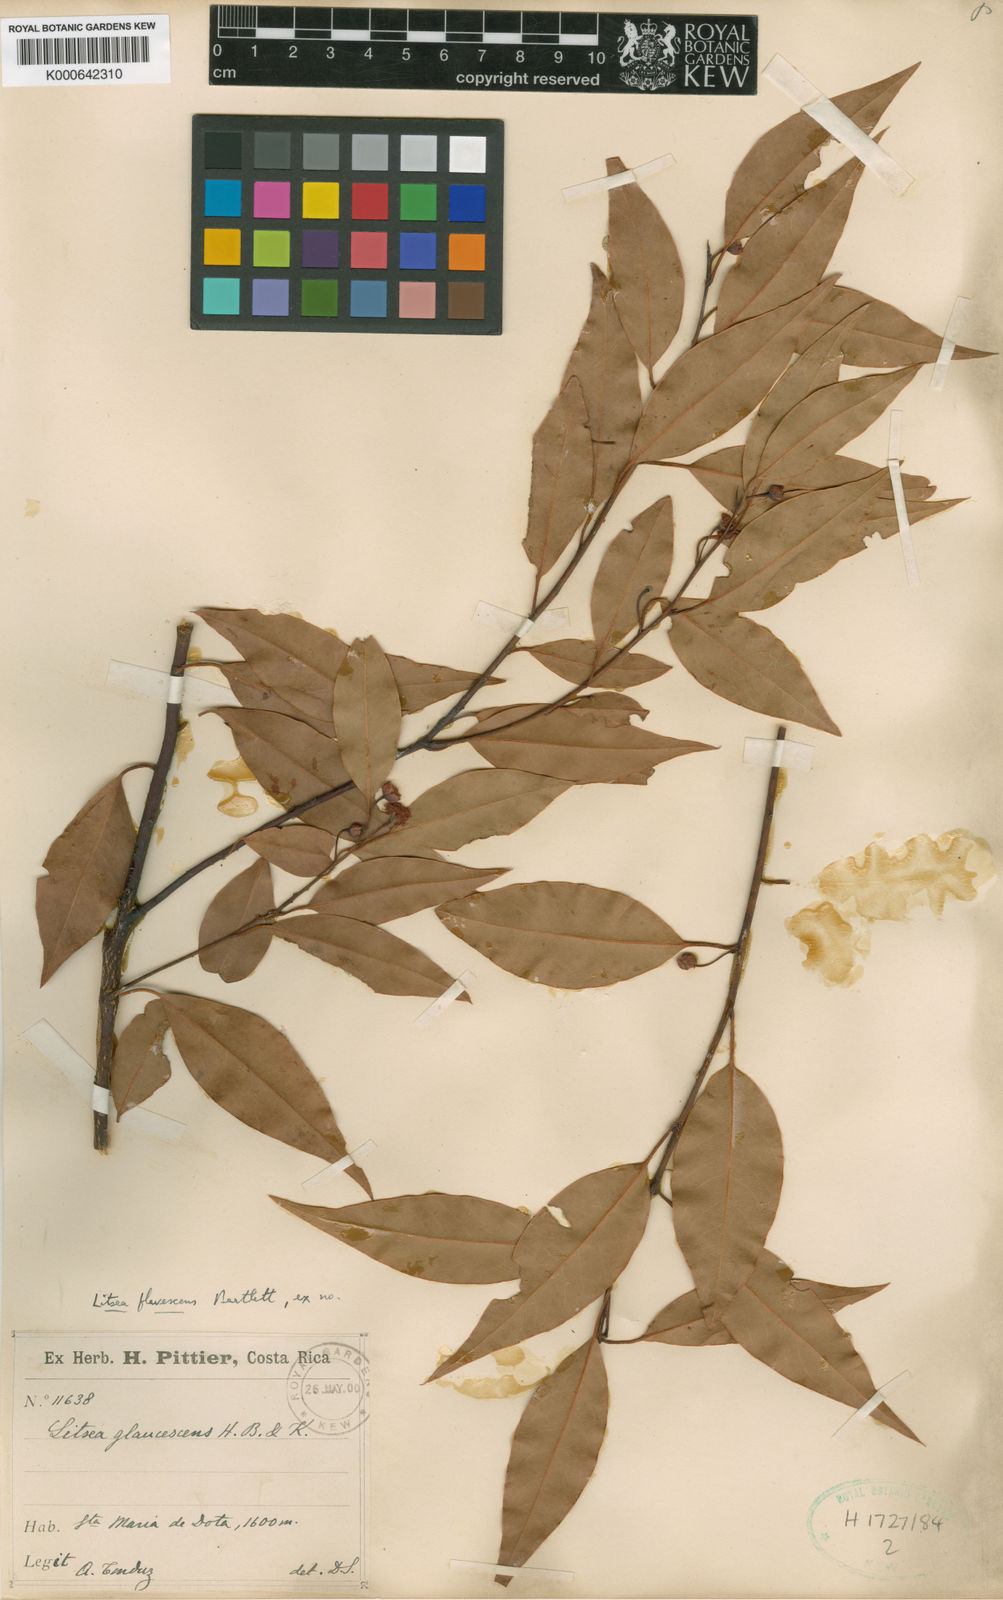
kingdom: Plantae
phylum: Tracheophyta
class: Magnoliopsida
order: Laurales
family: Lauraceae
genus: Licaria
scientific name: Licaria triandra
